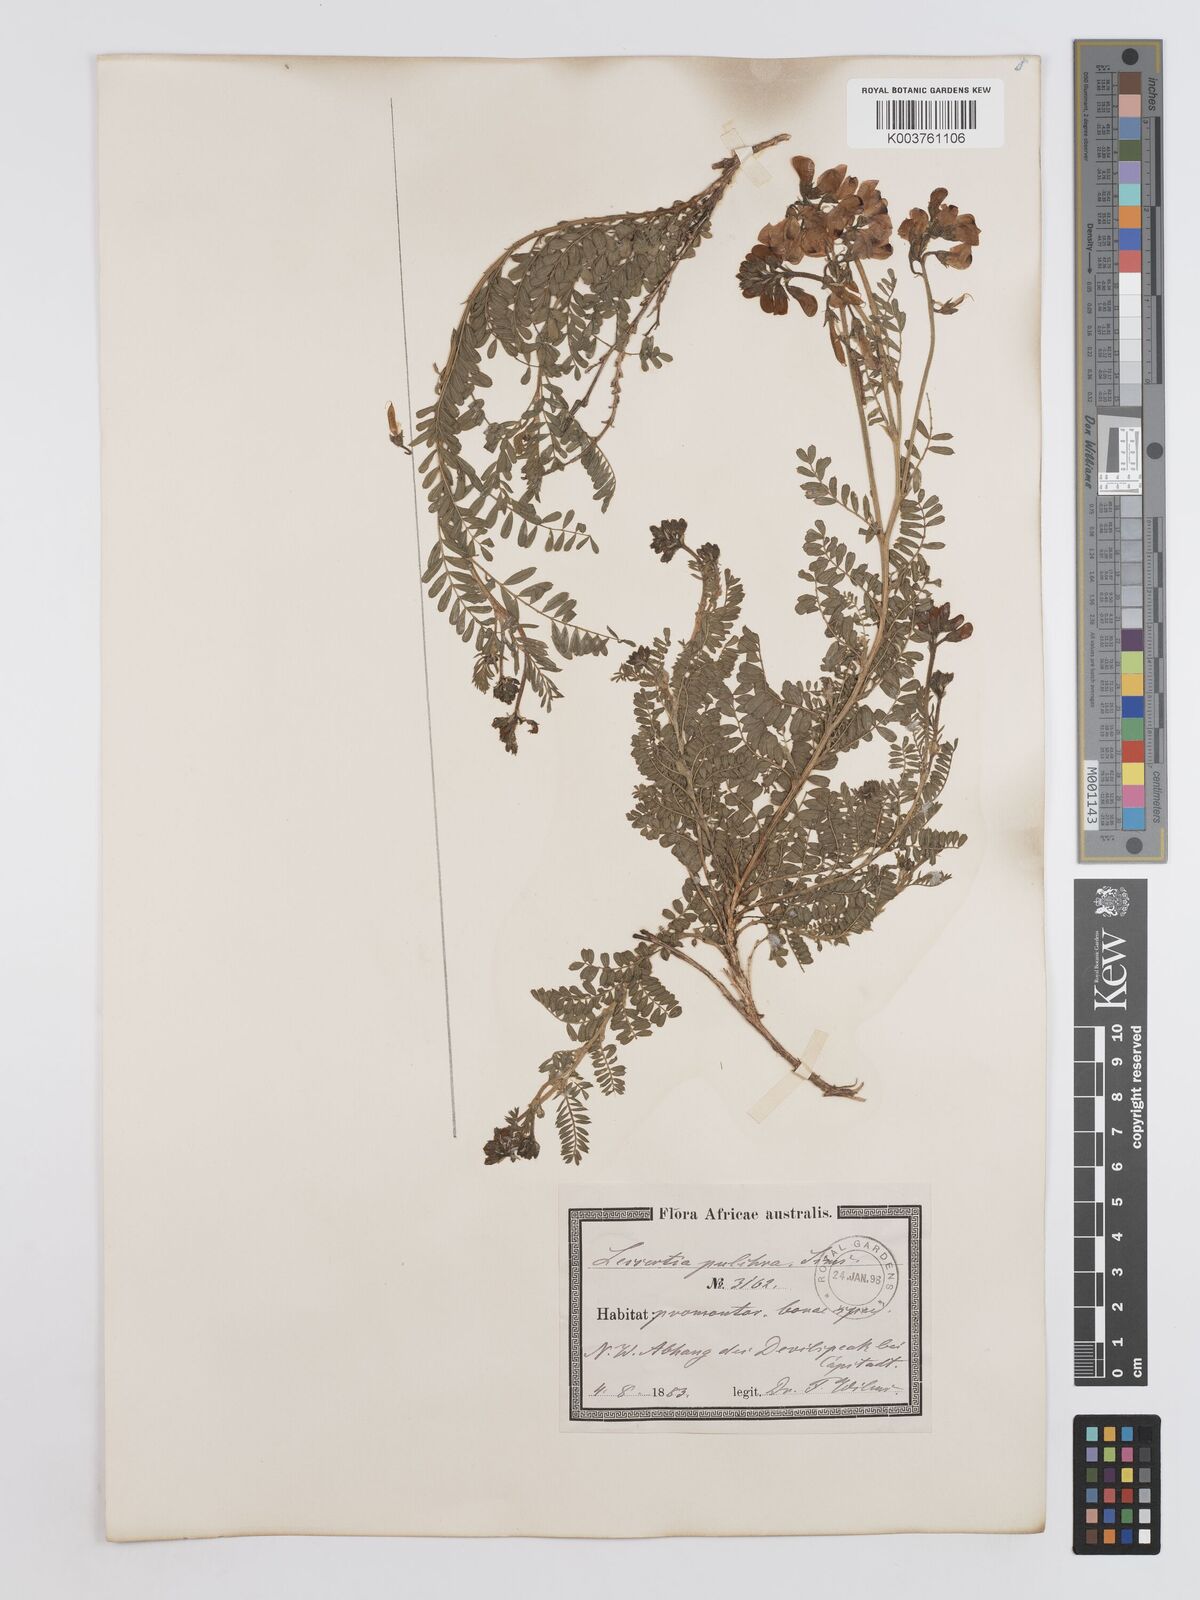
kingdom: Plantae
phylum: Tracheophyta
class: Magnoliopsida
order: Fabales
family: Fabaceae
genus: Lessertia
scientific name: Lessertia capensis
